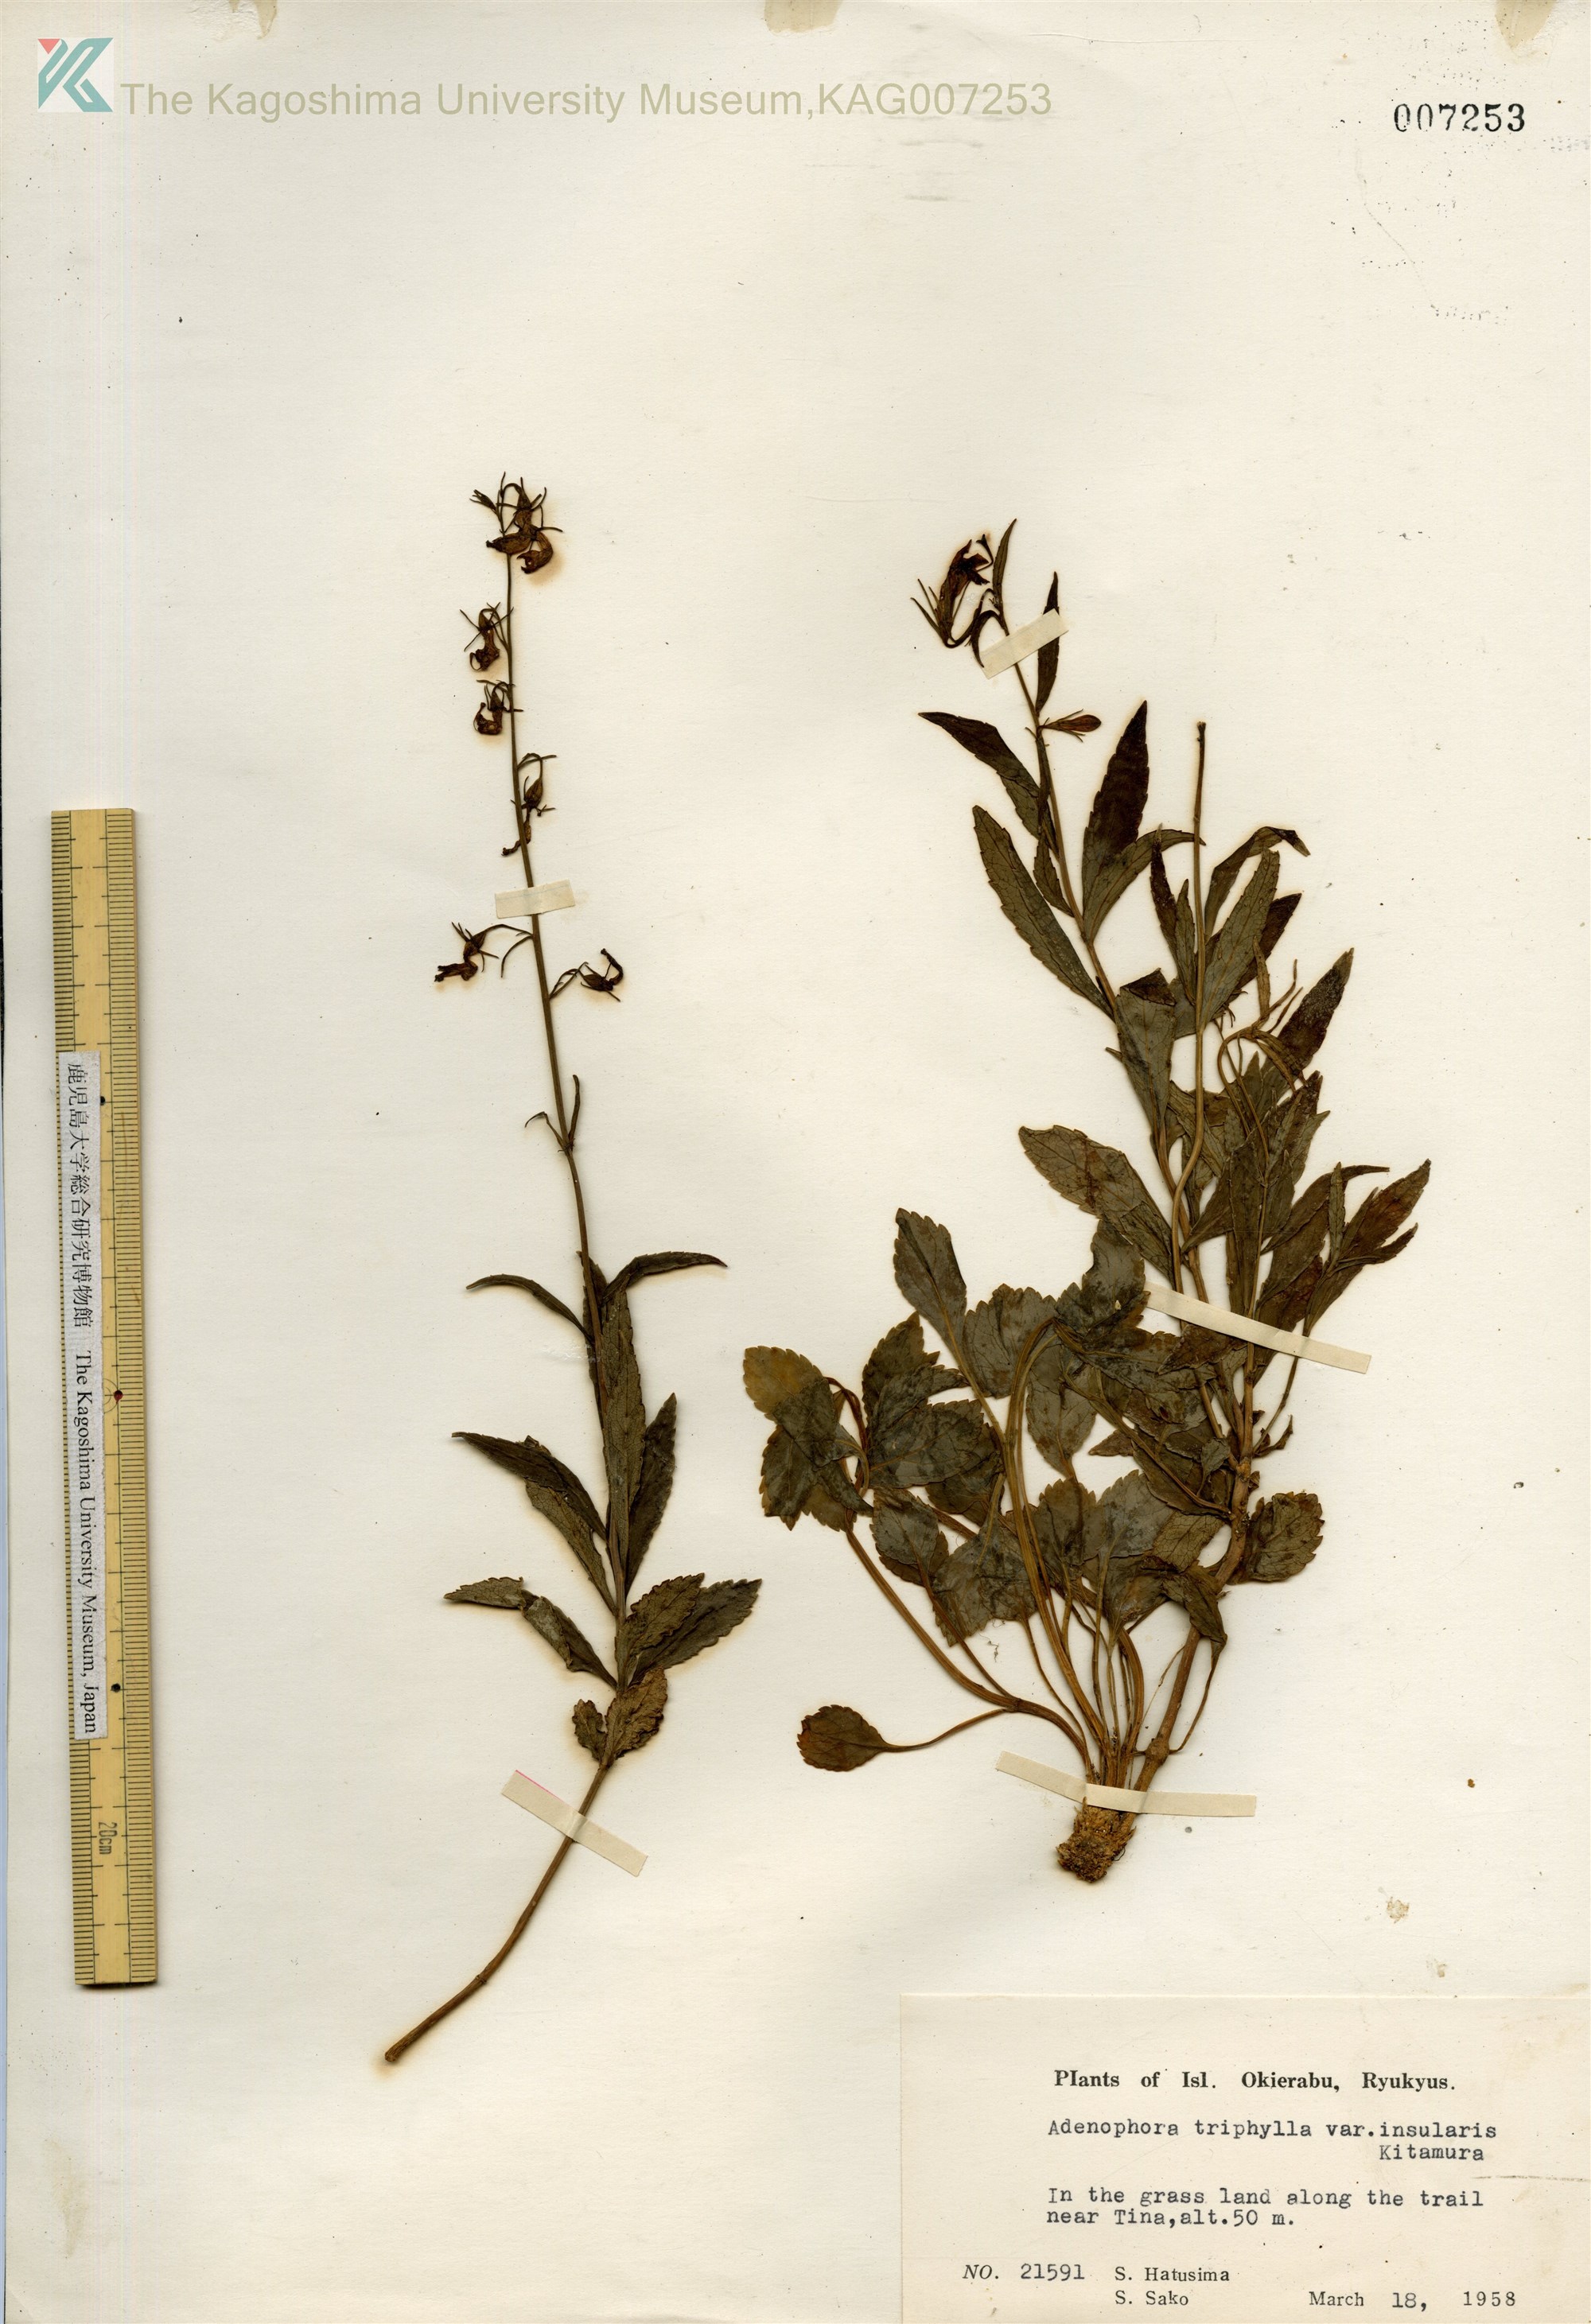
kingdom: Plantae
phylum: Tracheophyta
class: Magnoliopsida
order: Asterales
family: Campanulaceae
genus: Adenophora
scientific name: Adenophora tashiroi
